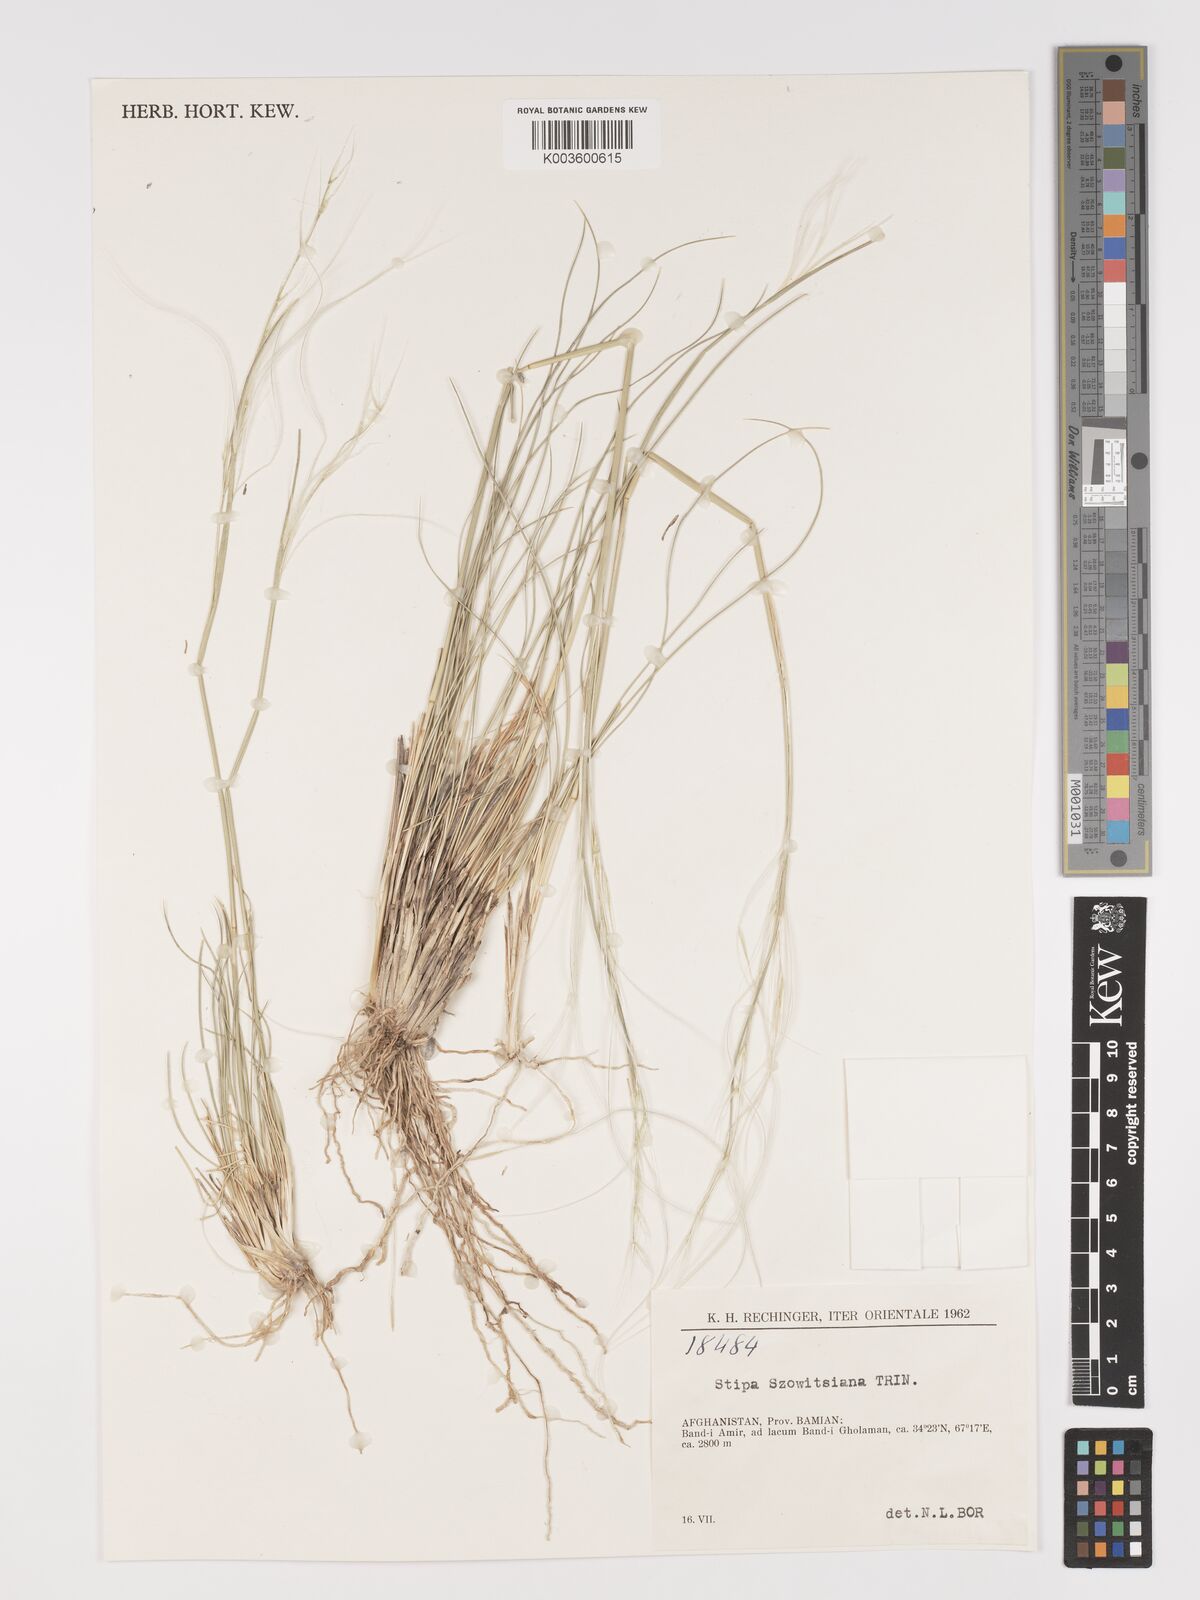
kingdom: Plantae
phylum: Tracheophyta
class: Liliopsida
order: Poales
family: Poaceae
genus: Stipa
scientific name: Stipa barbata
